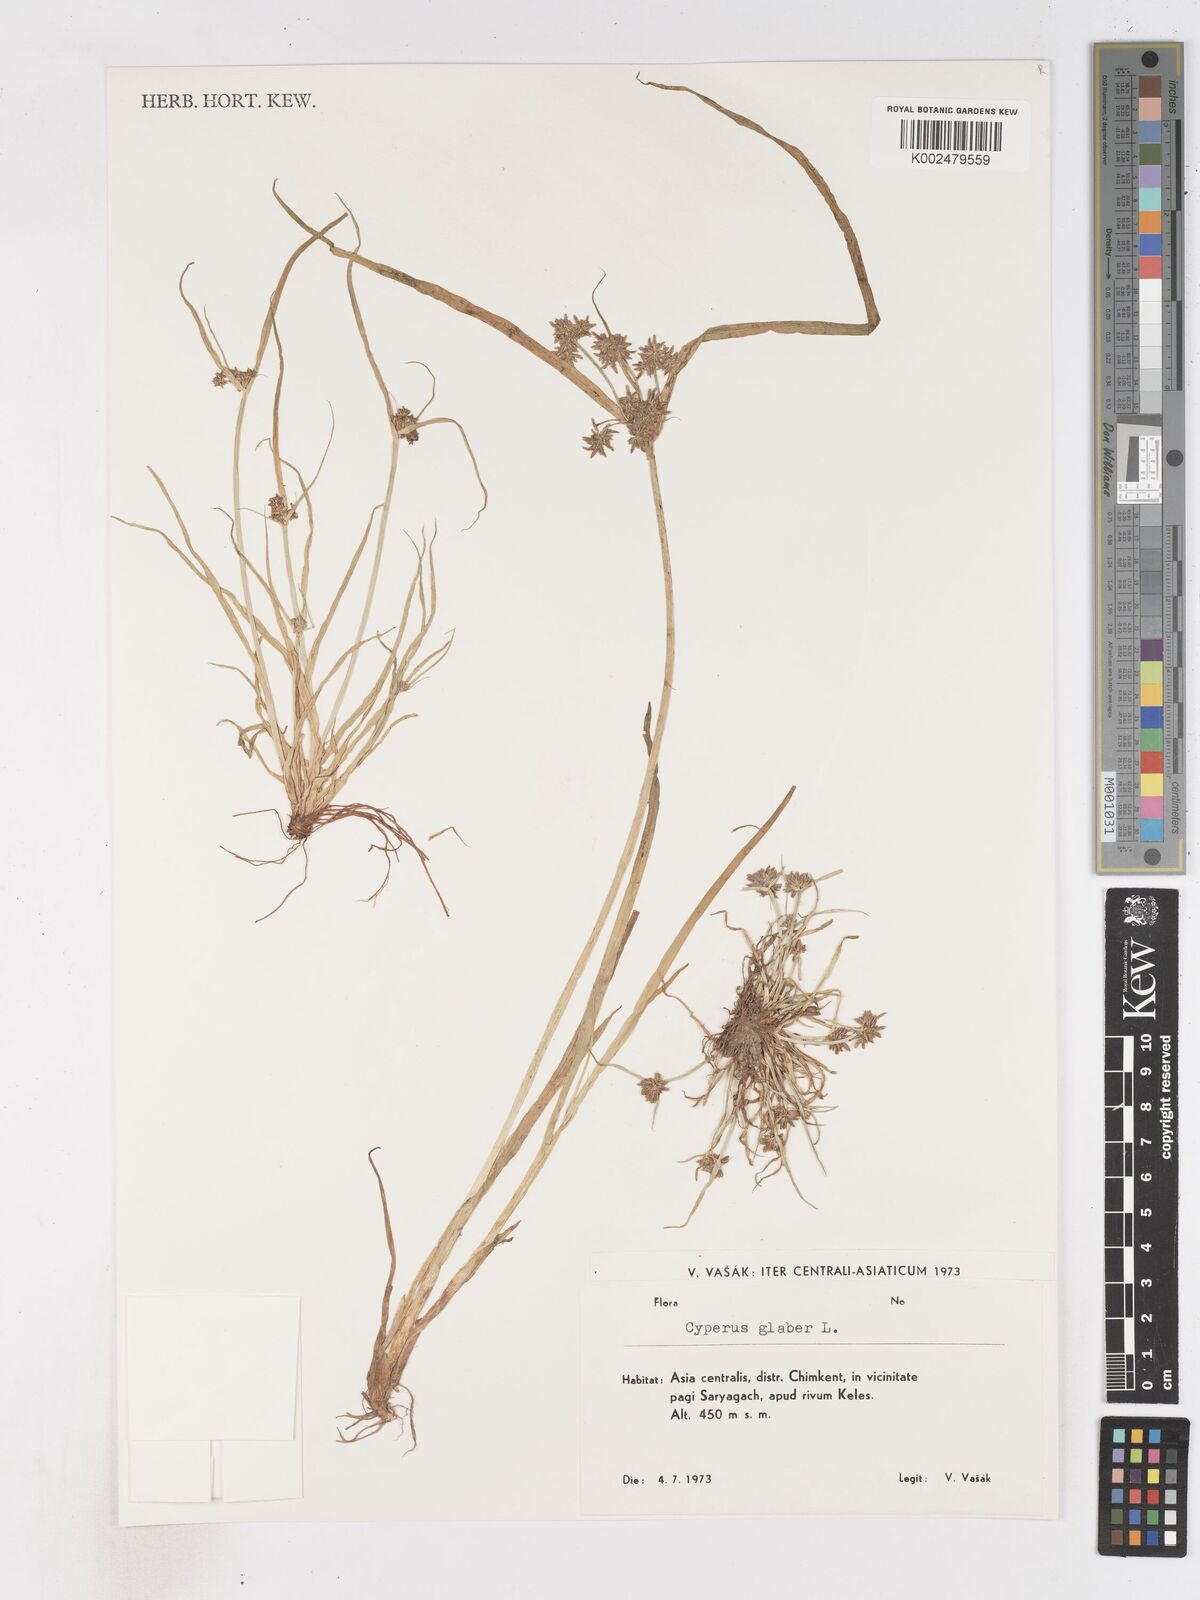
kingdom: Plantae
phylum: Tracheophyta
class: Liliopsida
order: Poales
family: Cyperaceae
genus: Cyperus
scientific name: Cyperus glaber
